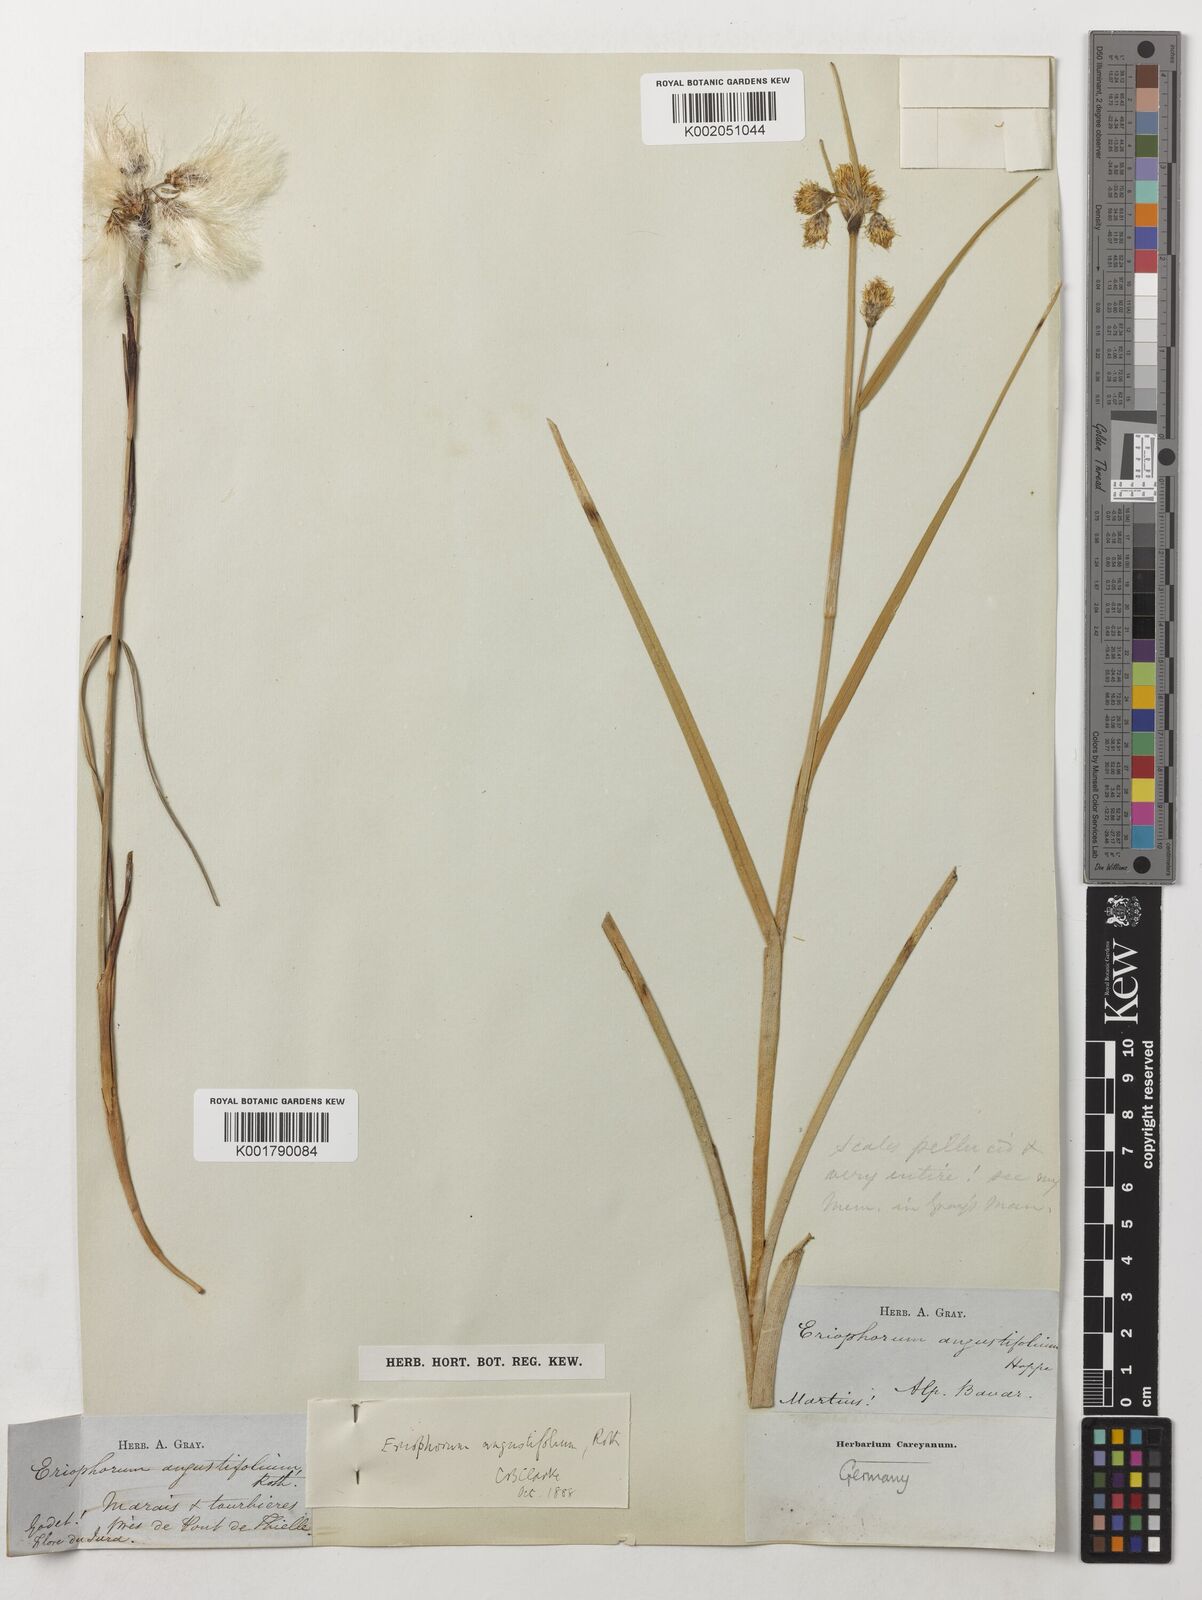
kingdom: Plantae
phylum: Tracheophyta
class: Liliopsida
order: Poales
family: Cyperaceae
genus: Eriophorum
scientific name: Eriophorum angustifolium
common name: Common cottongrass
